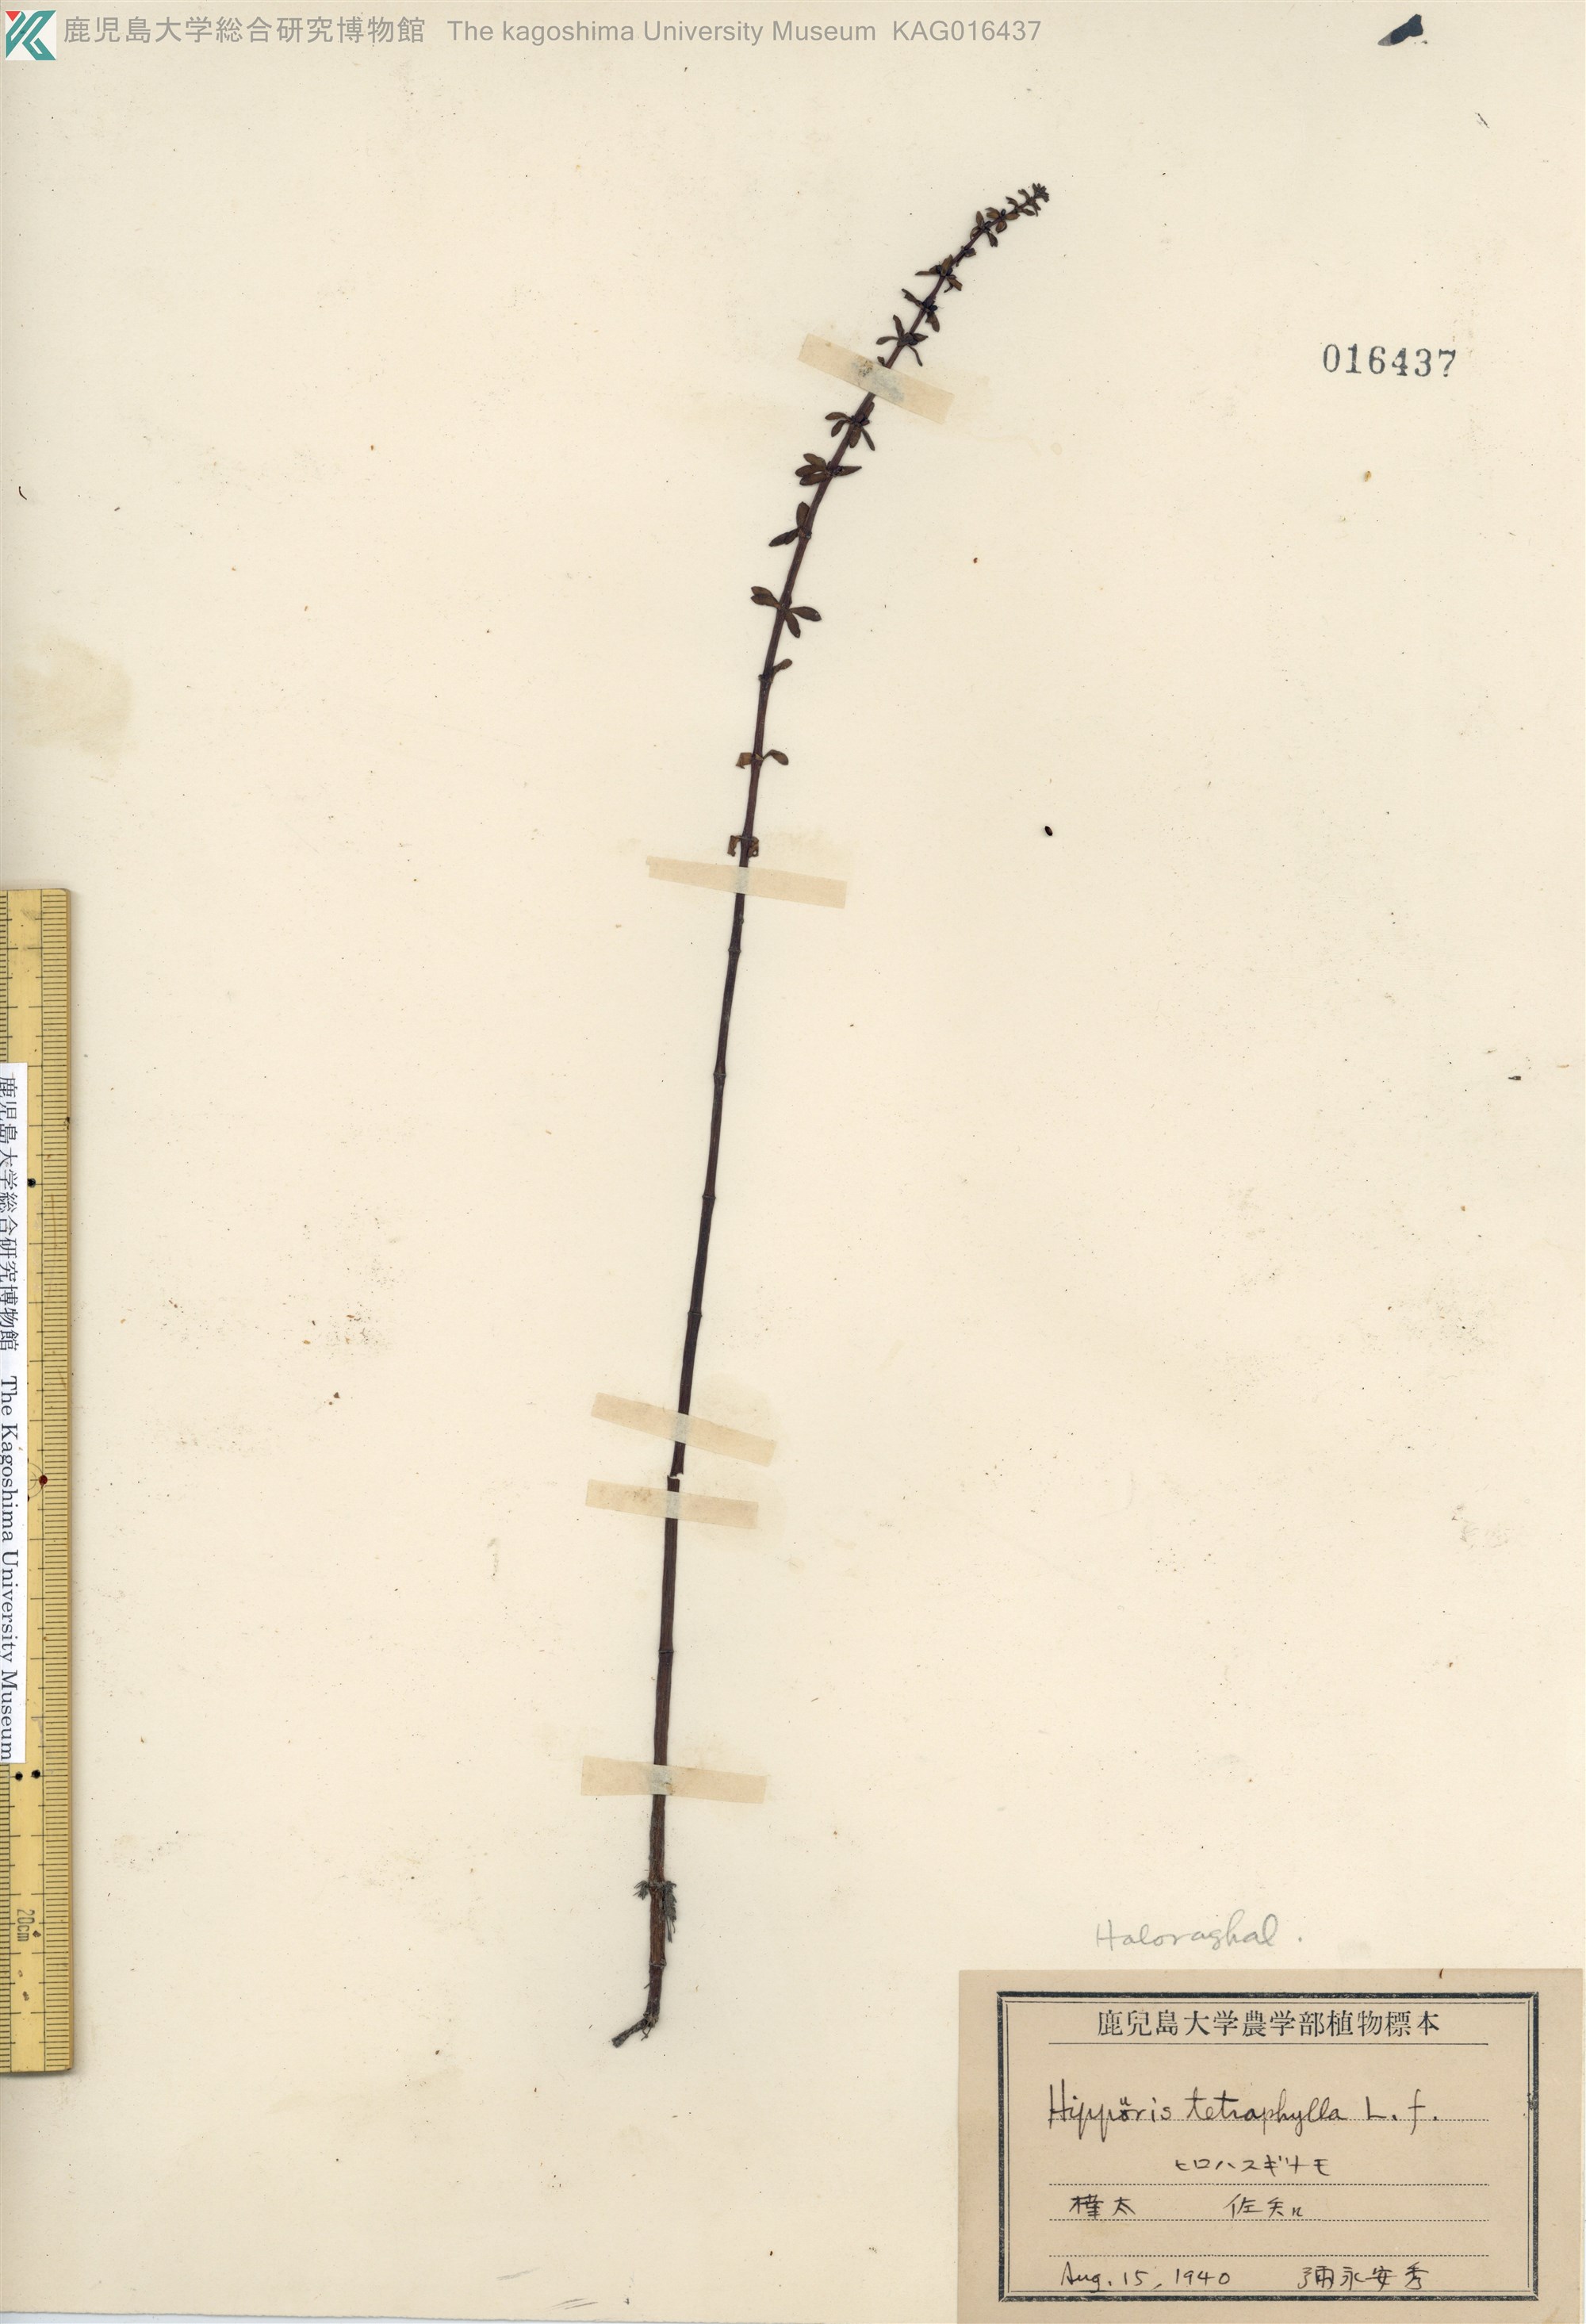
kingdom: Plantae
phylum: Tracheophyta
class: Magnoliopsida
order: Lamiales
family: Plantaginaceae
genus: Hippuris
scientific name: Hippuris tetraphylla
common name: Four-leaved mare's-tail
